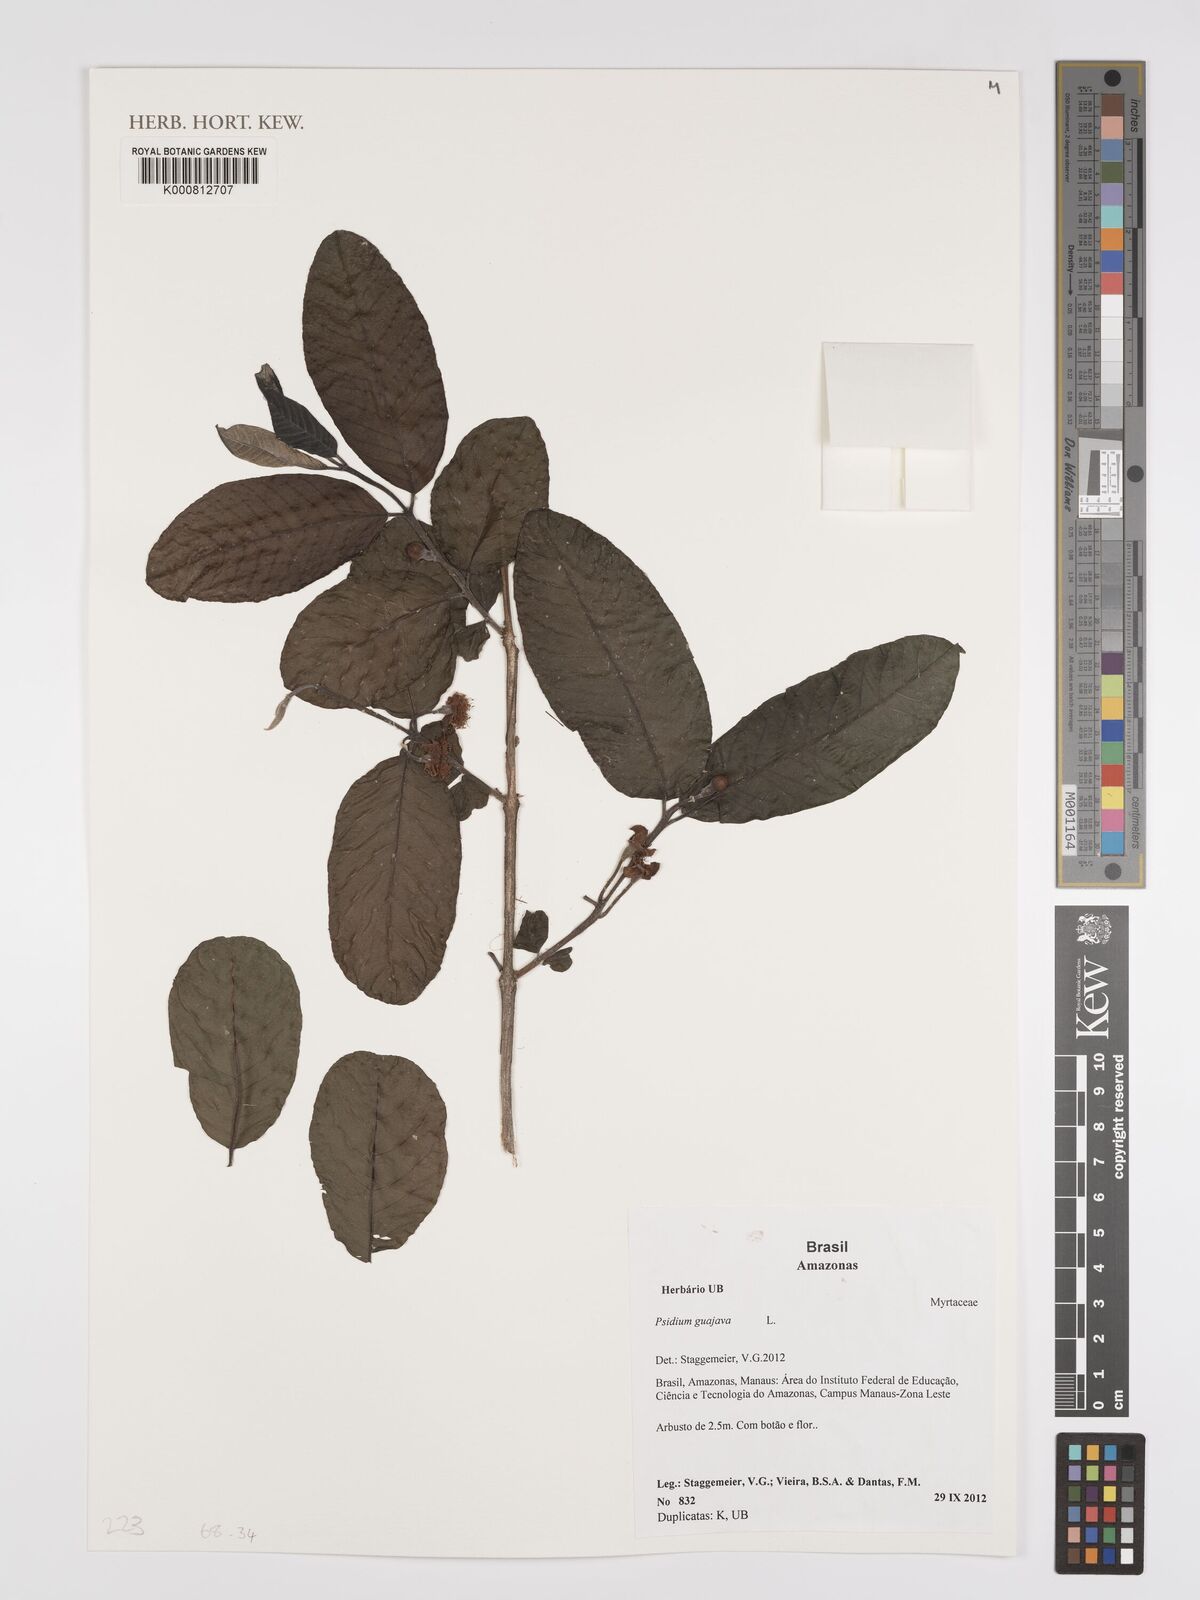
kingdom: Plantae
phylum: Tracheophyta
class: Magnoliopsida
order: Myrtales
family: Myrtaceae
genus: Psidium
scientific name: Psidium guajava
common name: Guava
